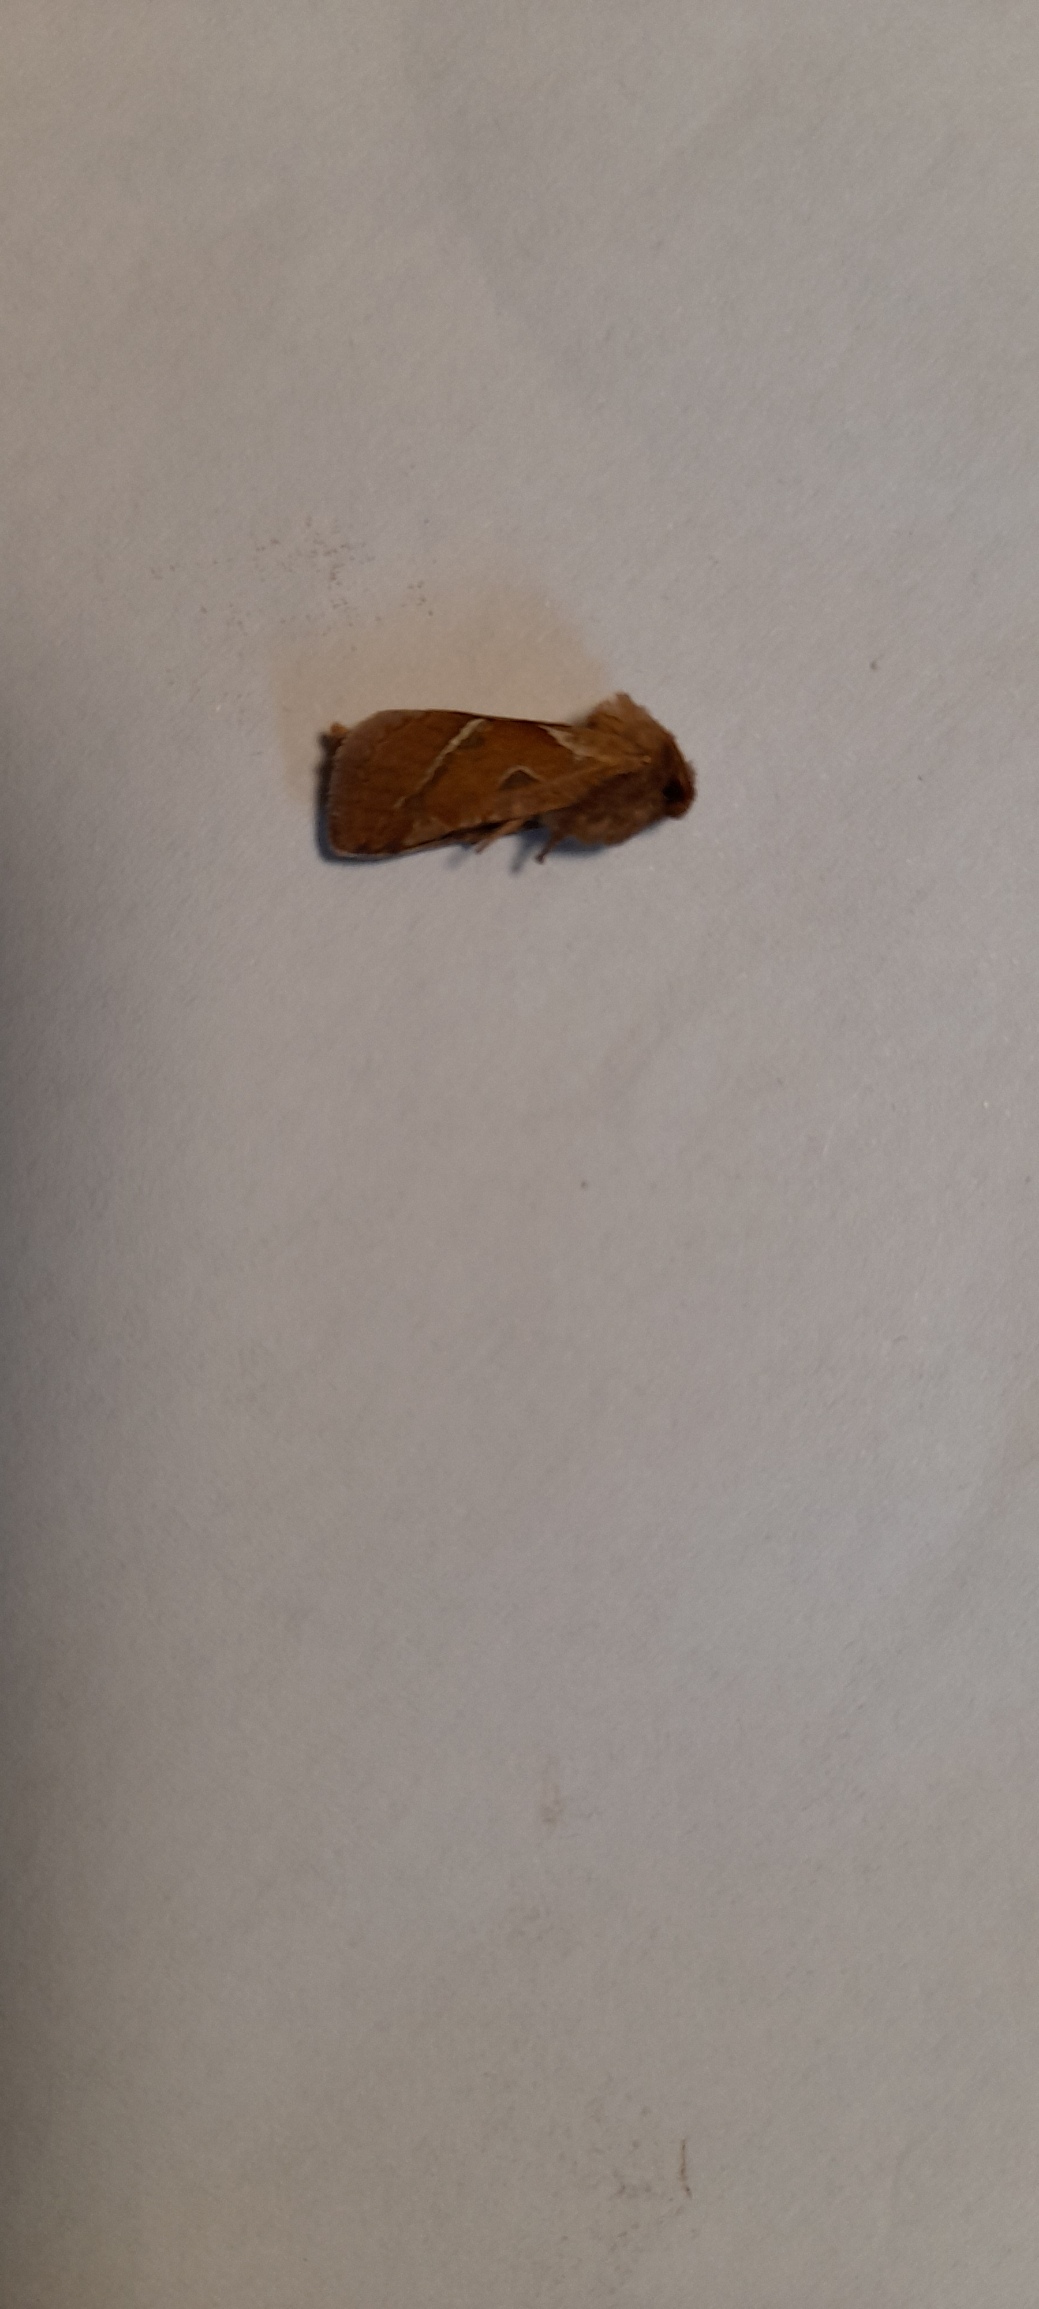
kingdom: Animalia
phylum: Arthropoda
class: Insecta
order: Lepidoptera
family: Hepialidae
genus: Triodia
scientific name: Triodia sylvina
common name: Skræpperodæder
